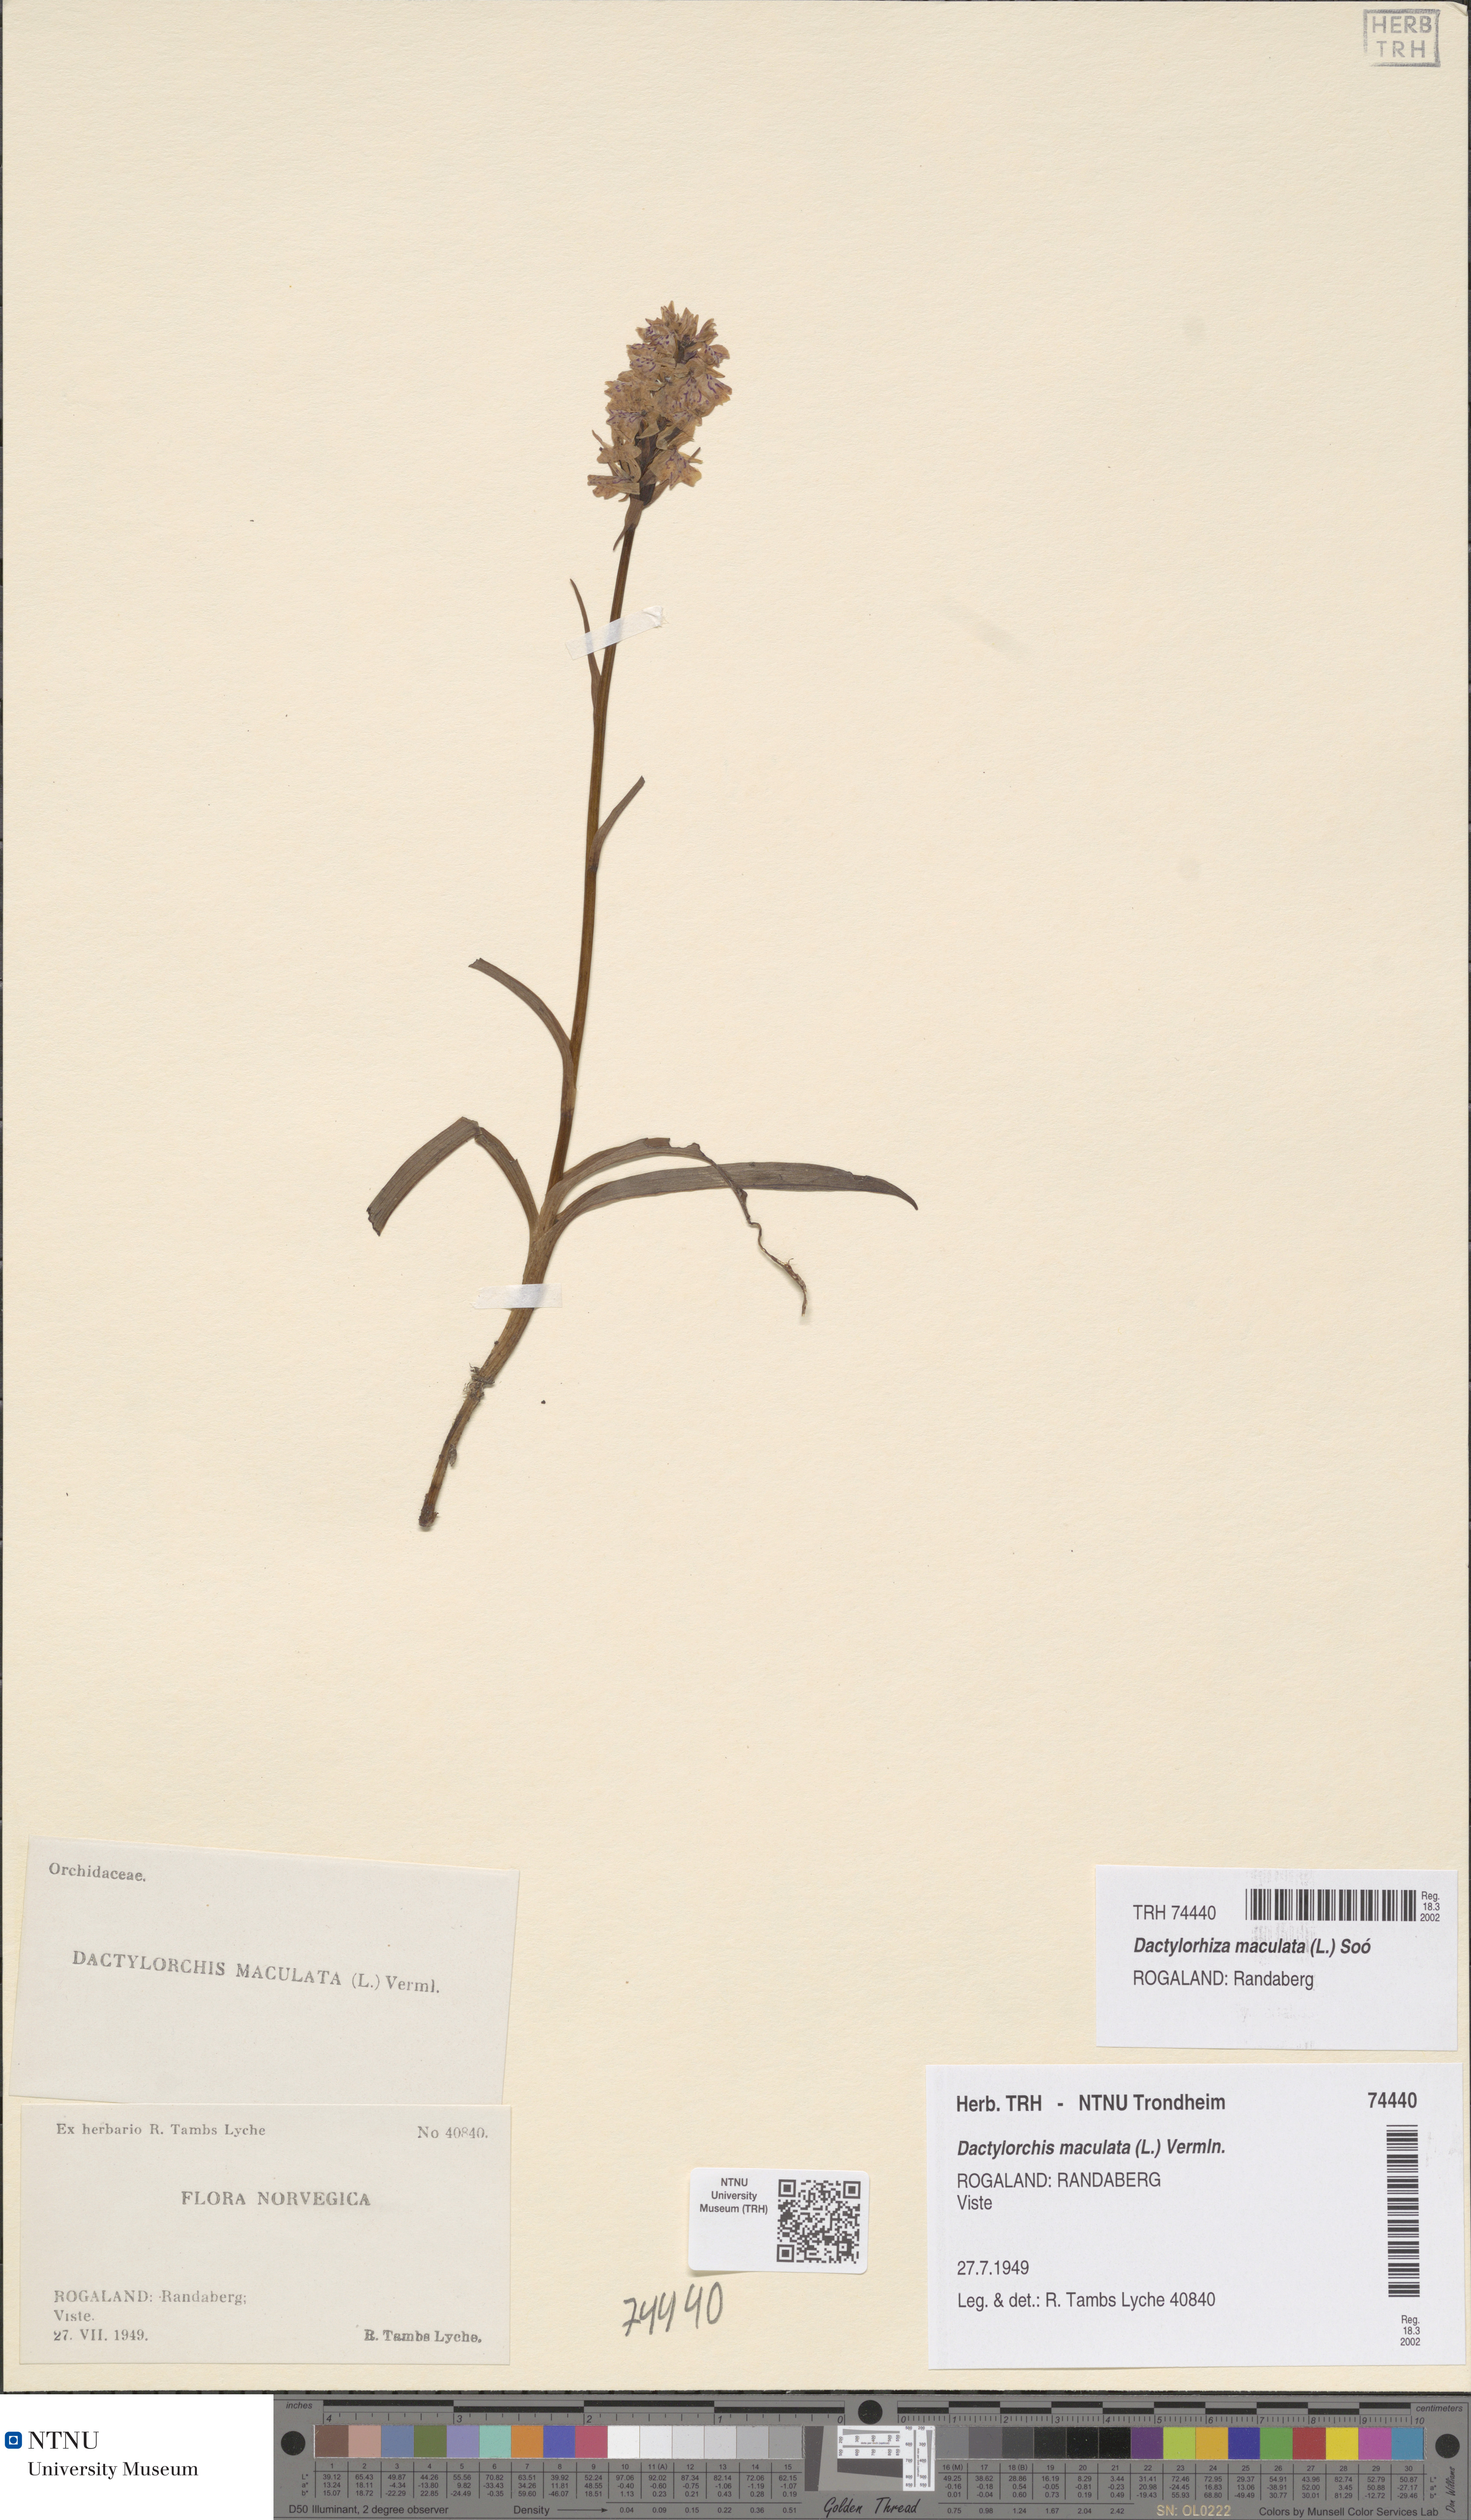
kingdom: Plantae
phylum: Tracheophyta
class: Liliopsida
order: Asparagales
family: Orchidaceae
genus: Dactylorhiza
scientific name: Dactylorhiza maculata
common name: Heath spotted-orchid
